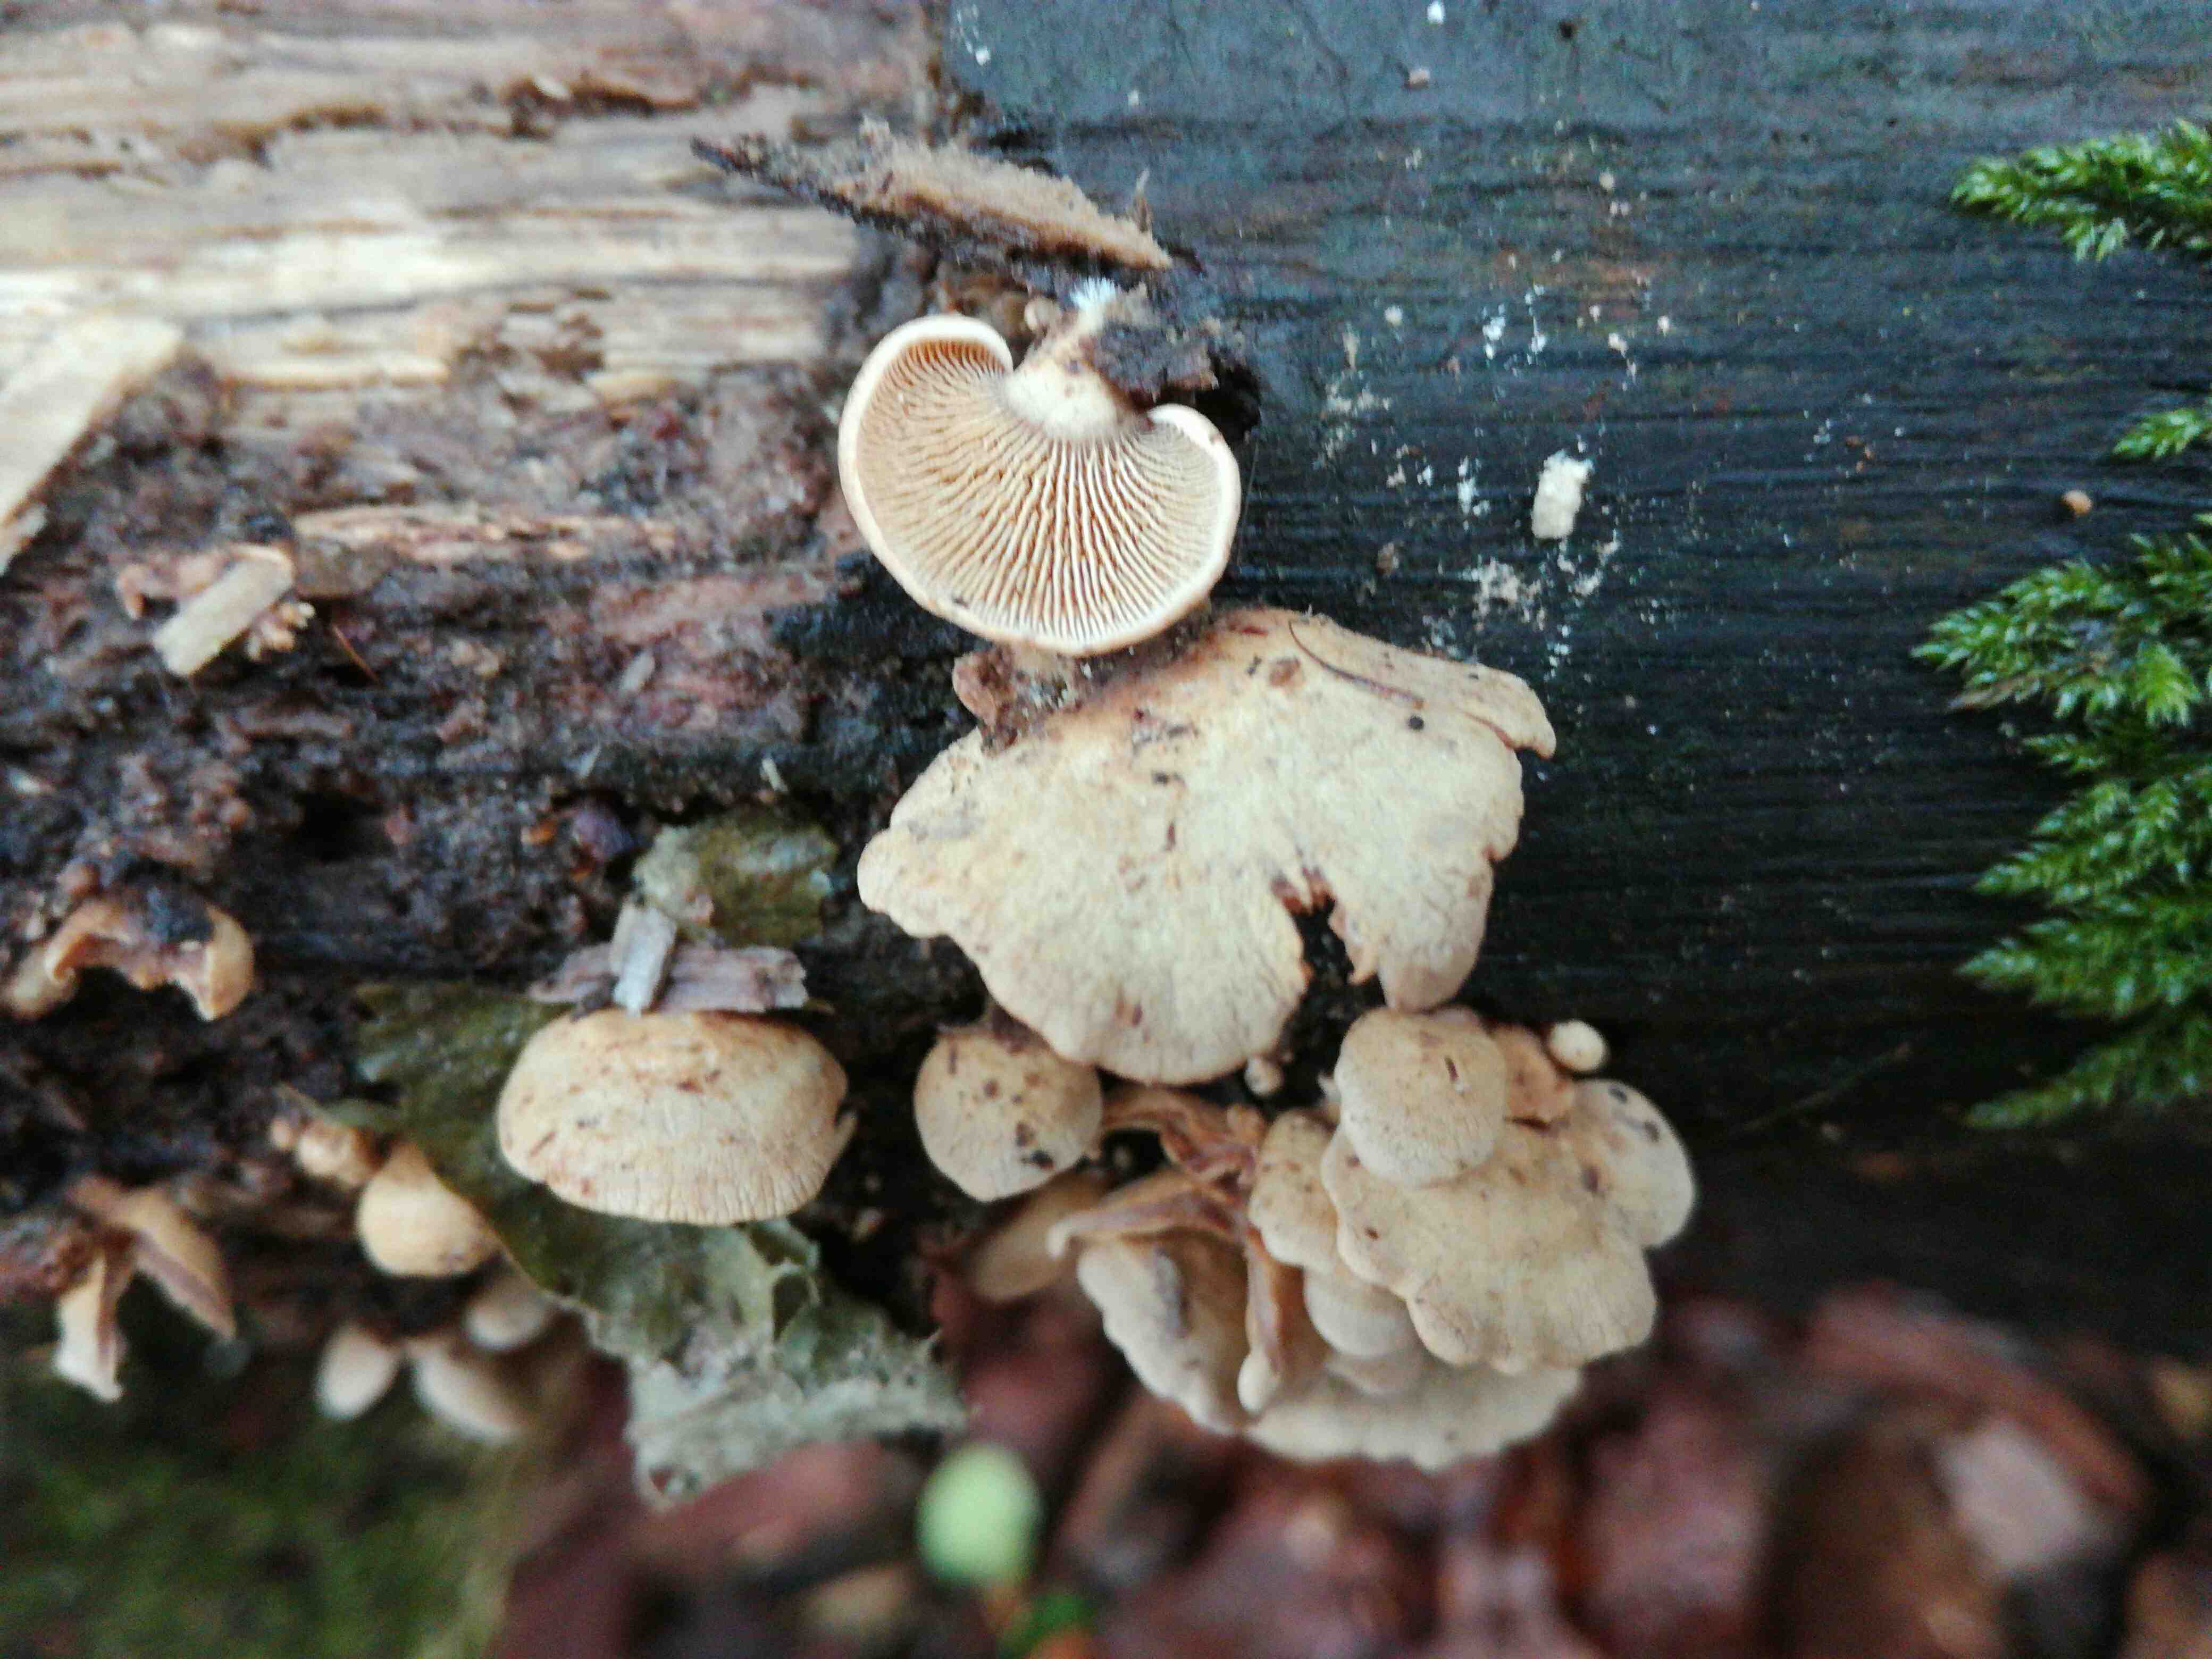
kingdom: Fungi
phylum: Basidiomycota
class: Agaricomycetes
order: Agaricales
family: Mycenaceae
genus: Panellus
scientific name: Panellus stipticus
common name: kliddet epaulethat
